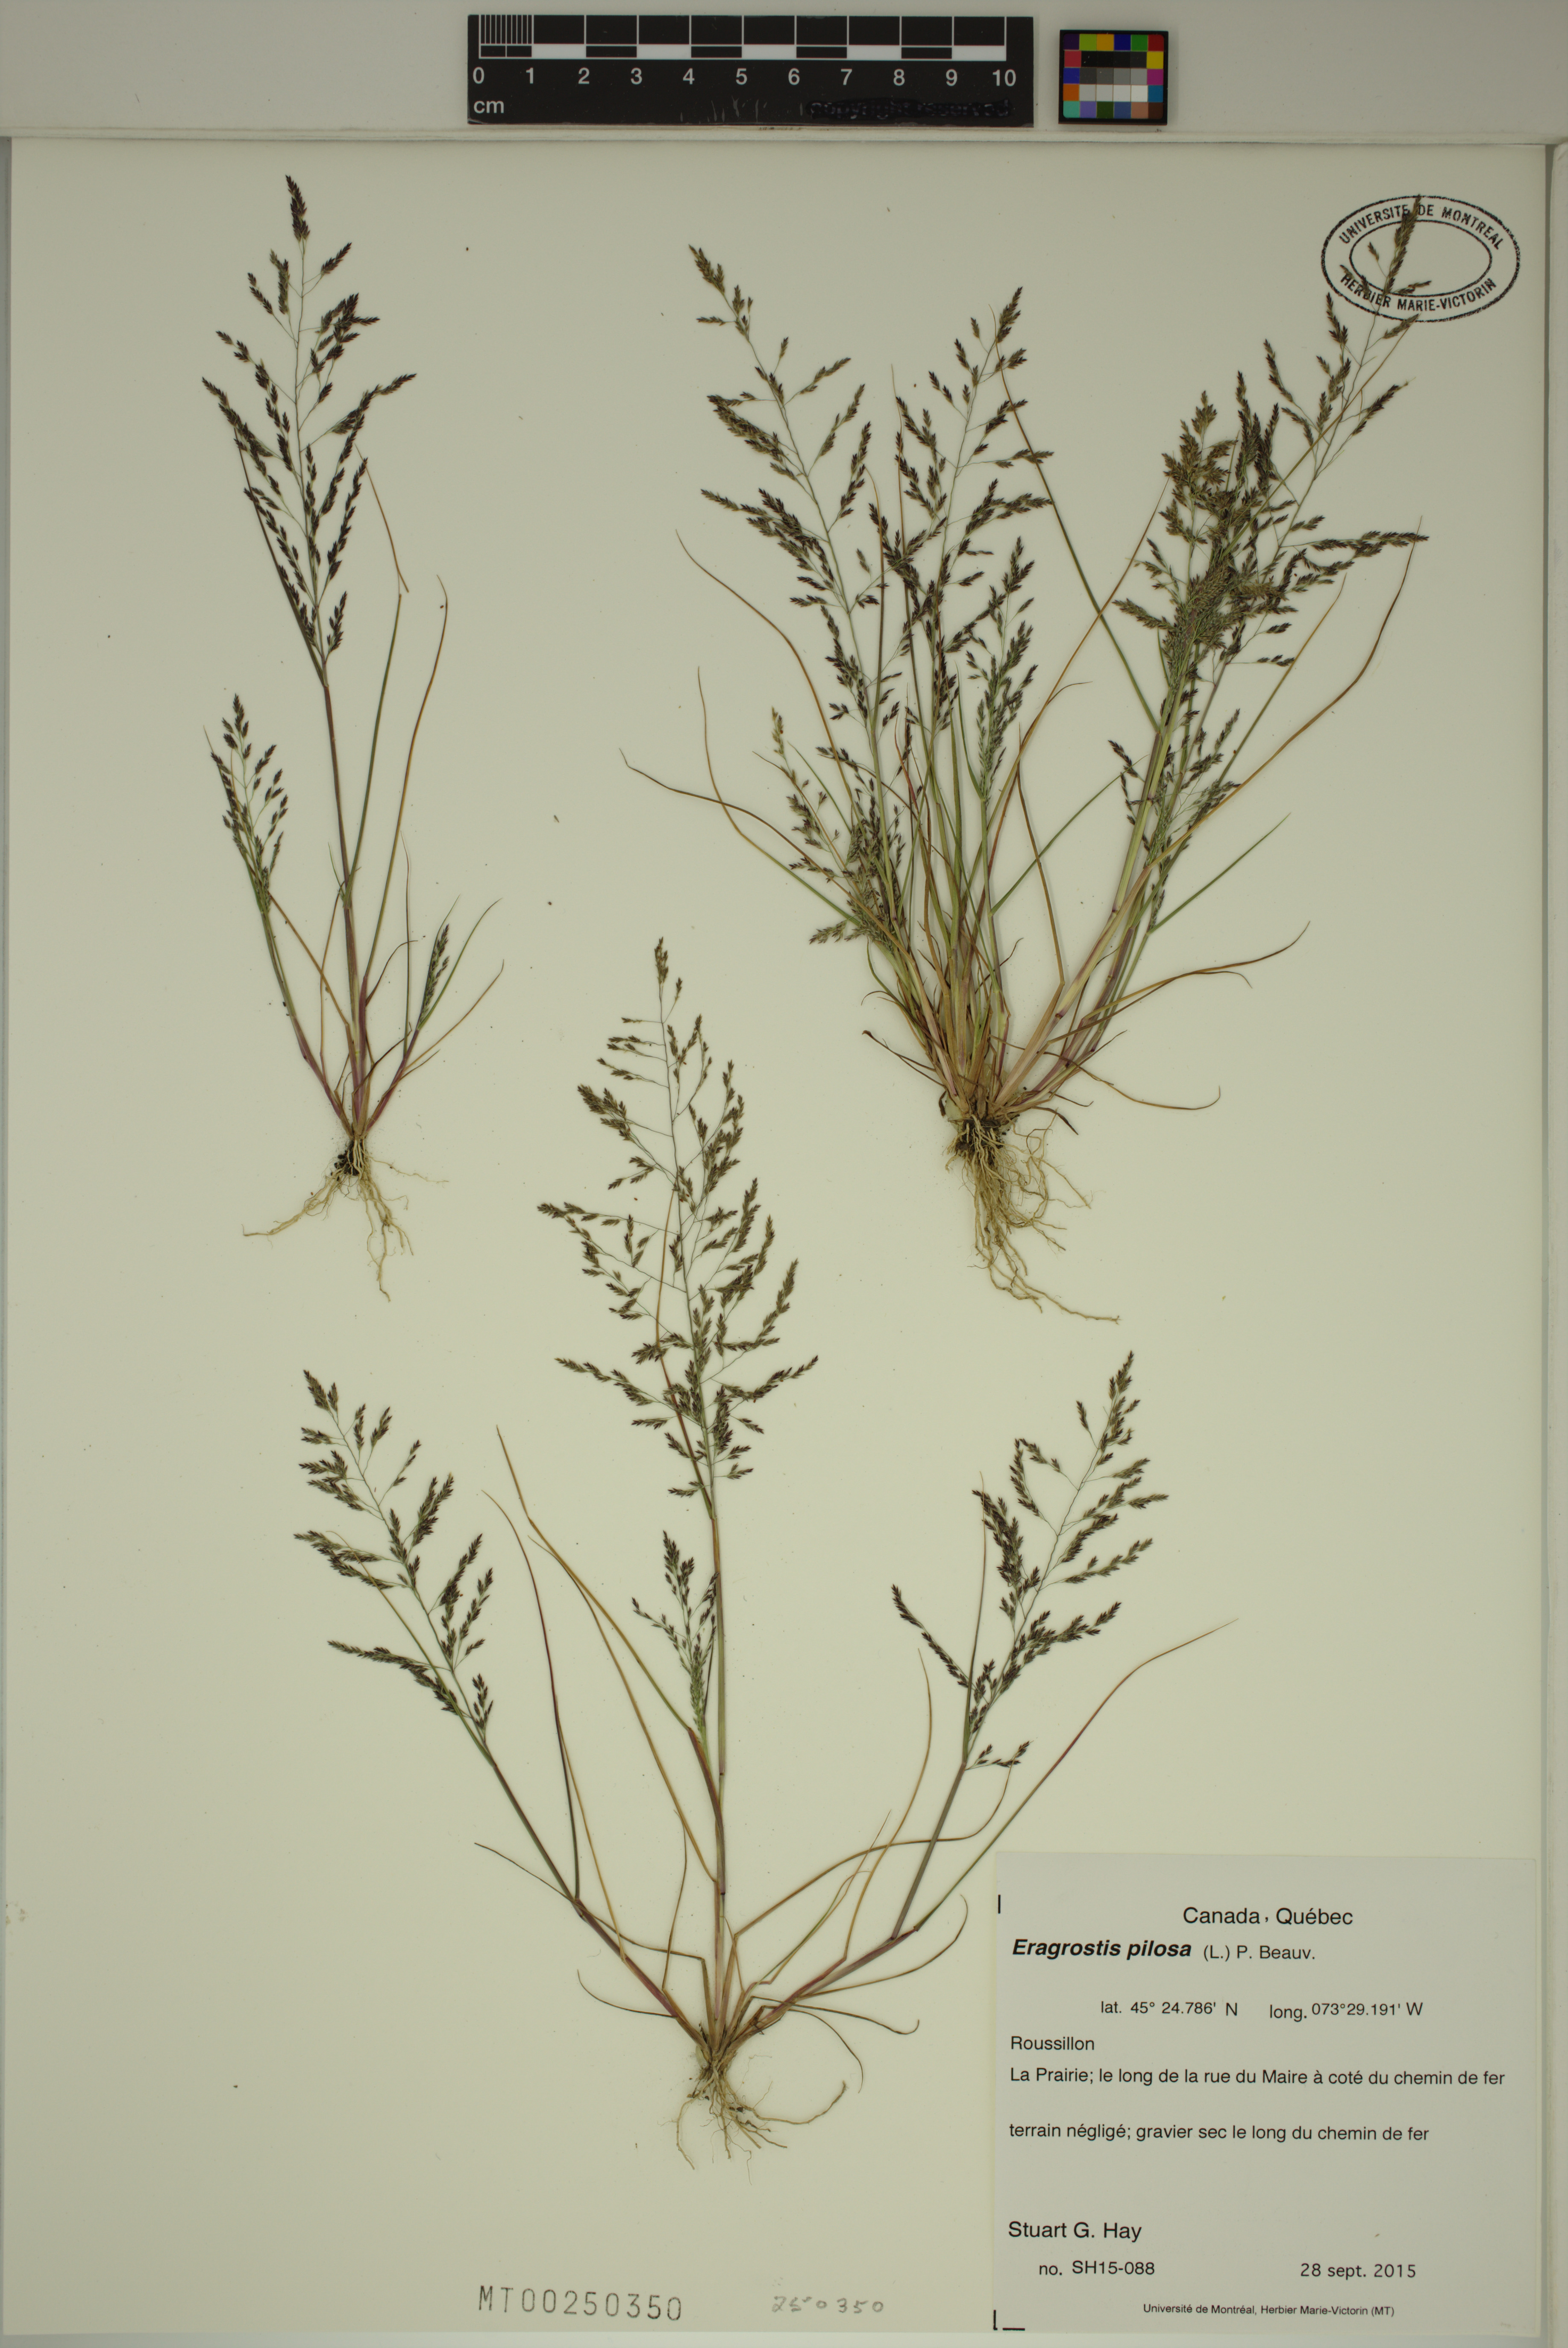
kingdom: Plantae
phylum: Tracheophyta
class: Liliopsida
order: Poales
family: Poaceae
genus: Eragrostis
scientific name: Eragrostis pilosa
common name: Indian lovegrass
